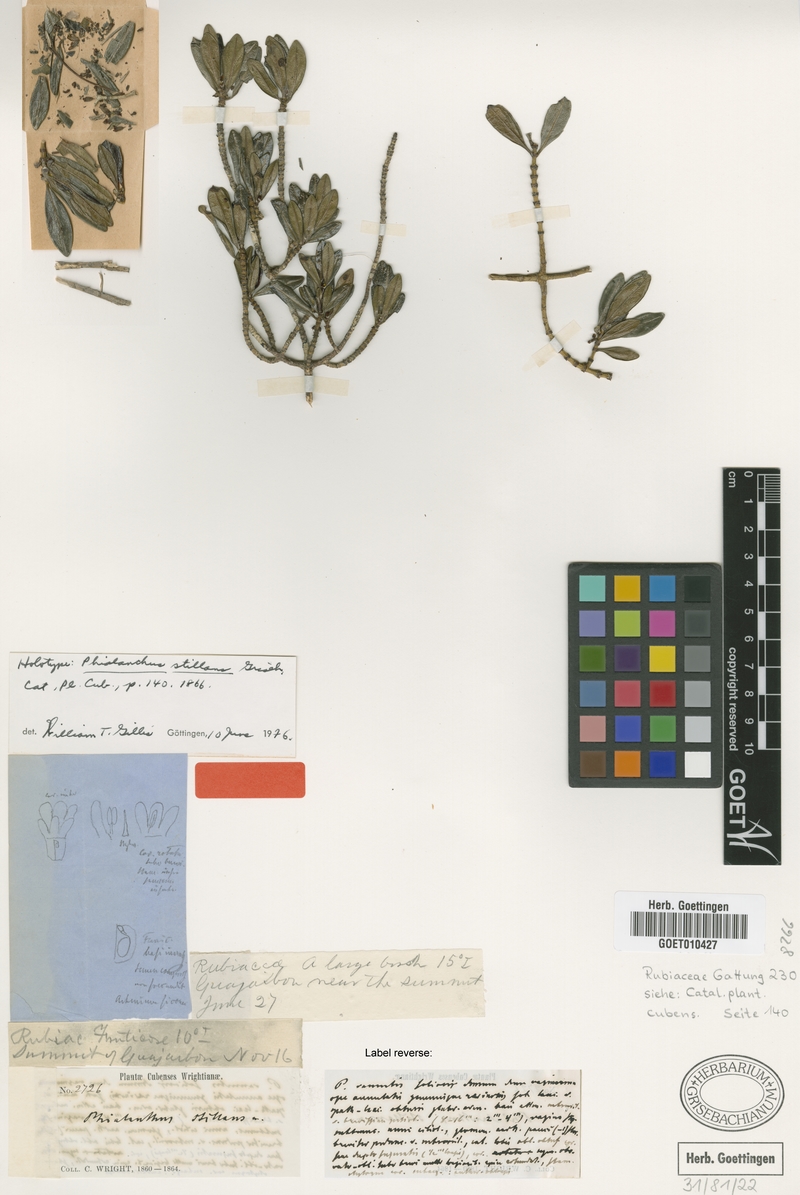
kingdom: Plantae
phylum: Tracheophyta
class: Magnoliopsida
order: Gentianales
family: Rubiaceae
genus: Phialanthus
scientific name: Phialanthus stillans
